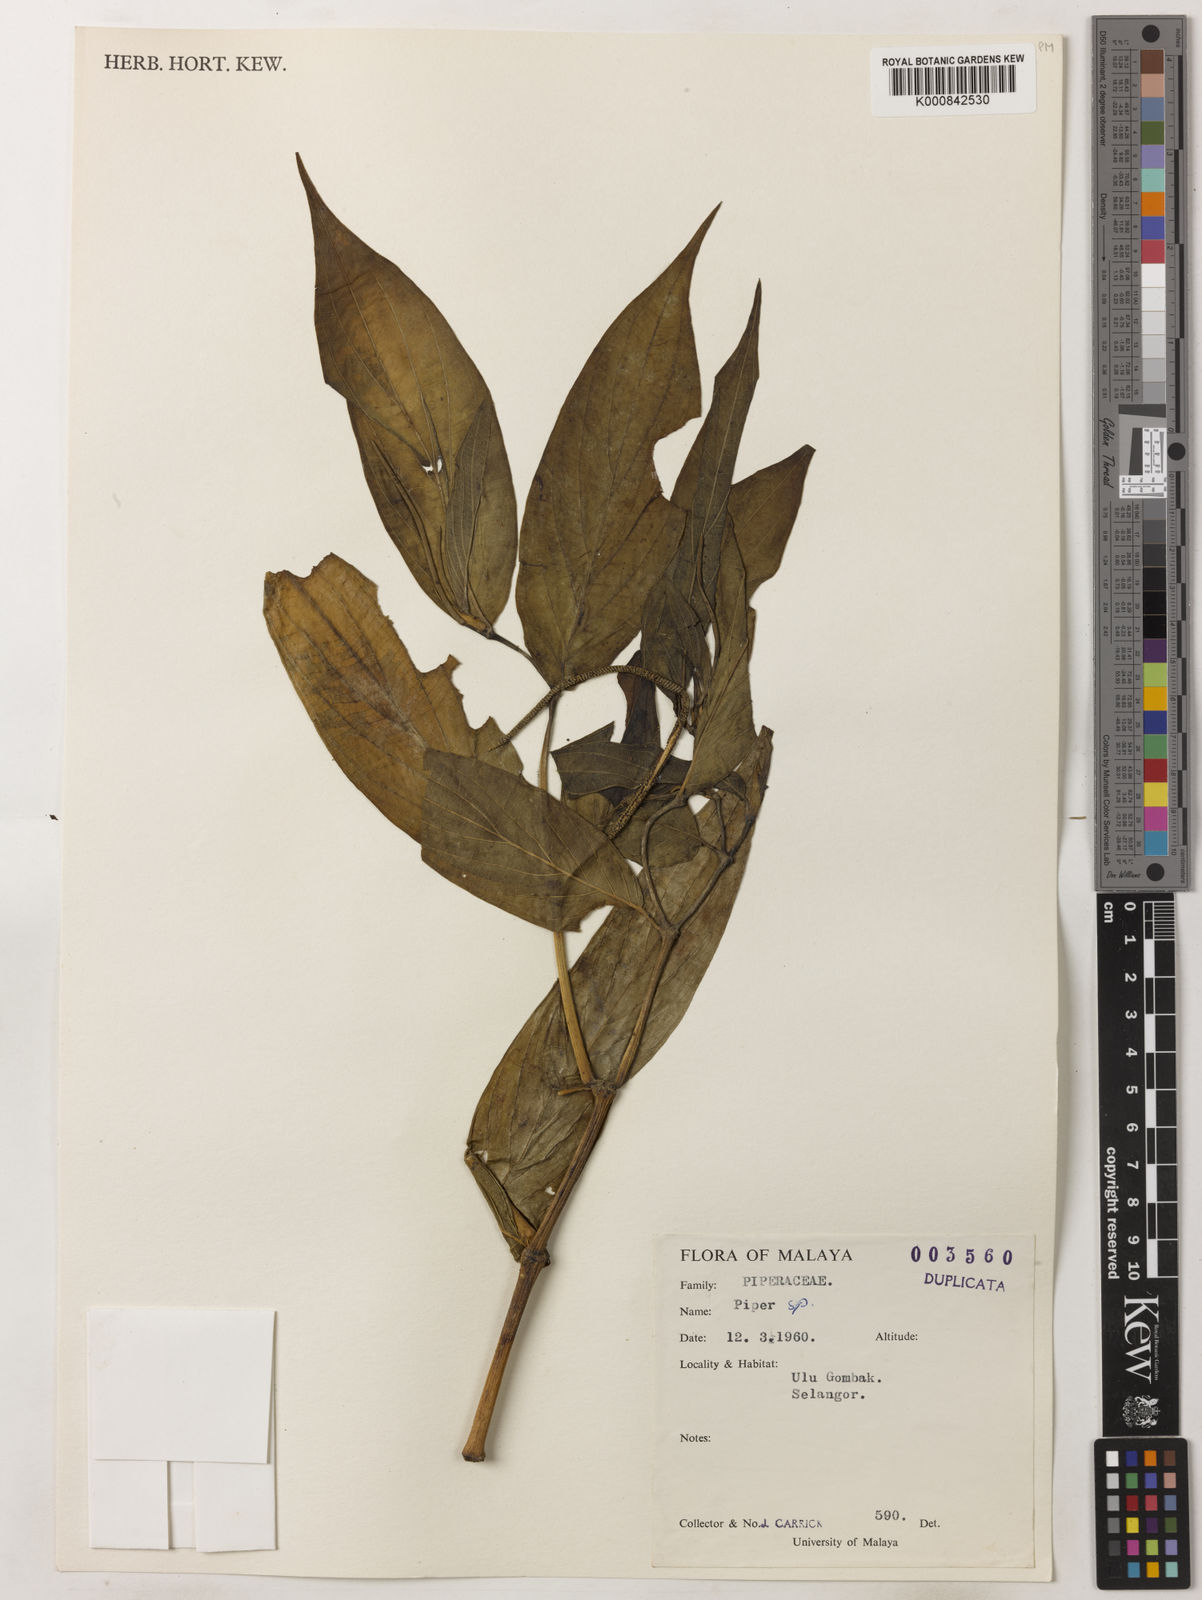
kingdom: Plantae
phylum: Tracheophyta
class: Magnoliopsida
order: Piperales
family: Piperaceae
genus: Piper
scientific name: Piper
